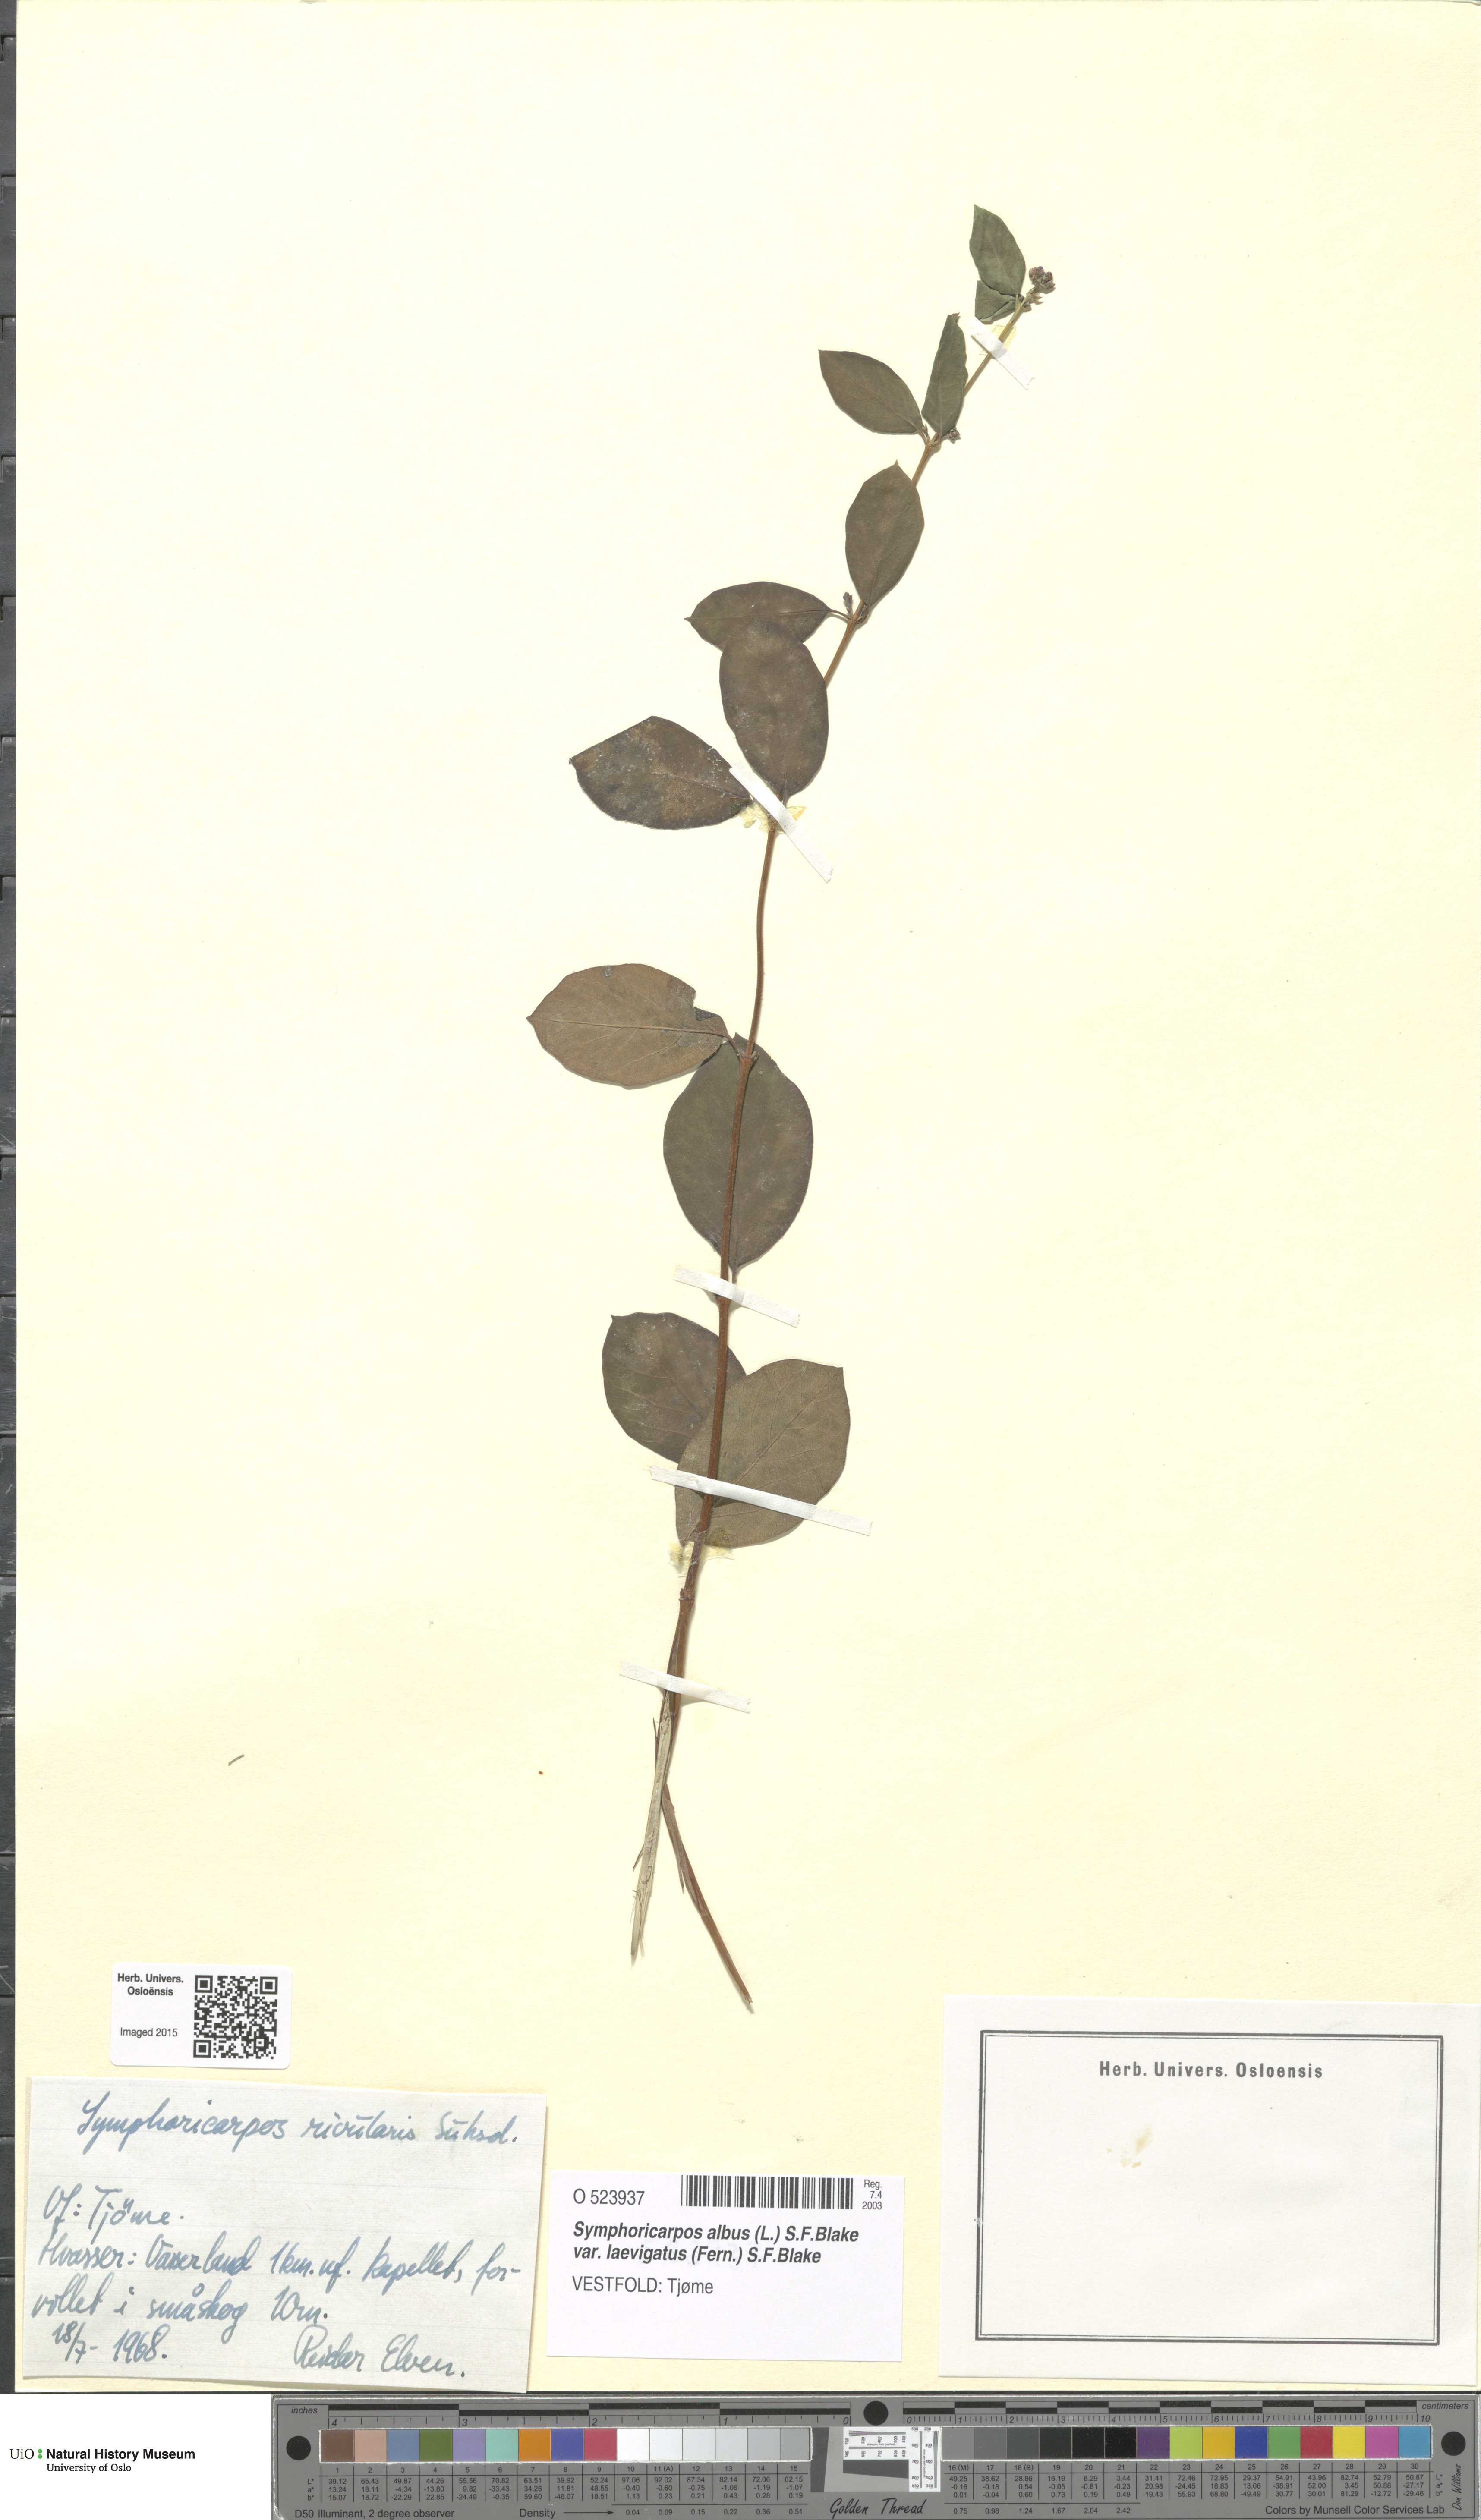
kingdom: Plantae
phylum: Tracheophyta
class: Magnoliopsida
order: Dipsacales
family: Caprifoliaceae
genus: Symphoricarpos
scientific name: Symphoricarpos albus
